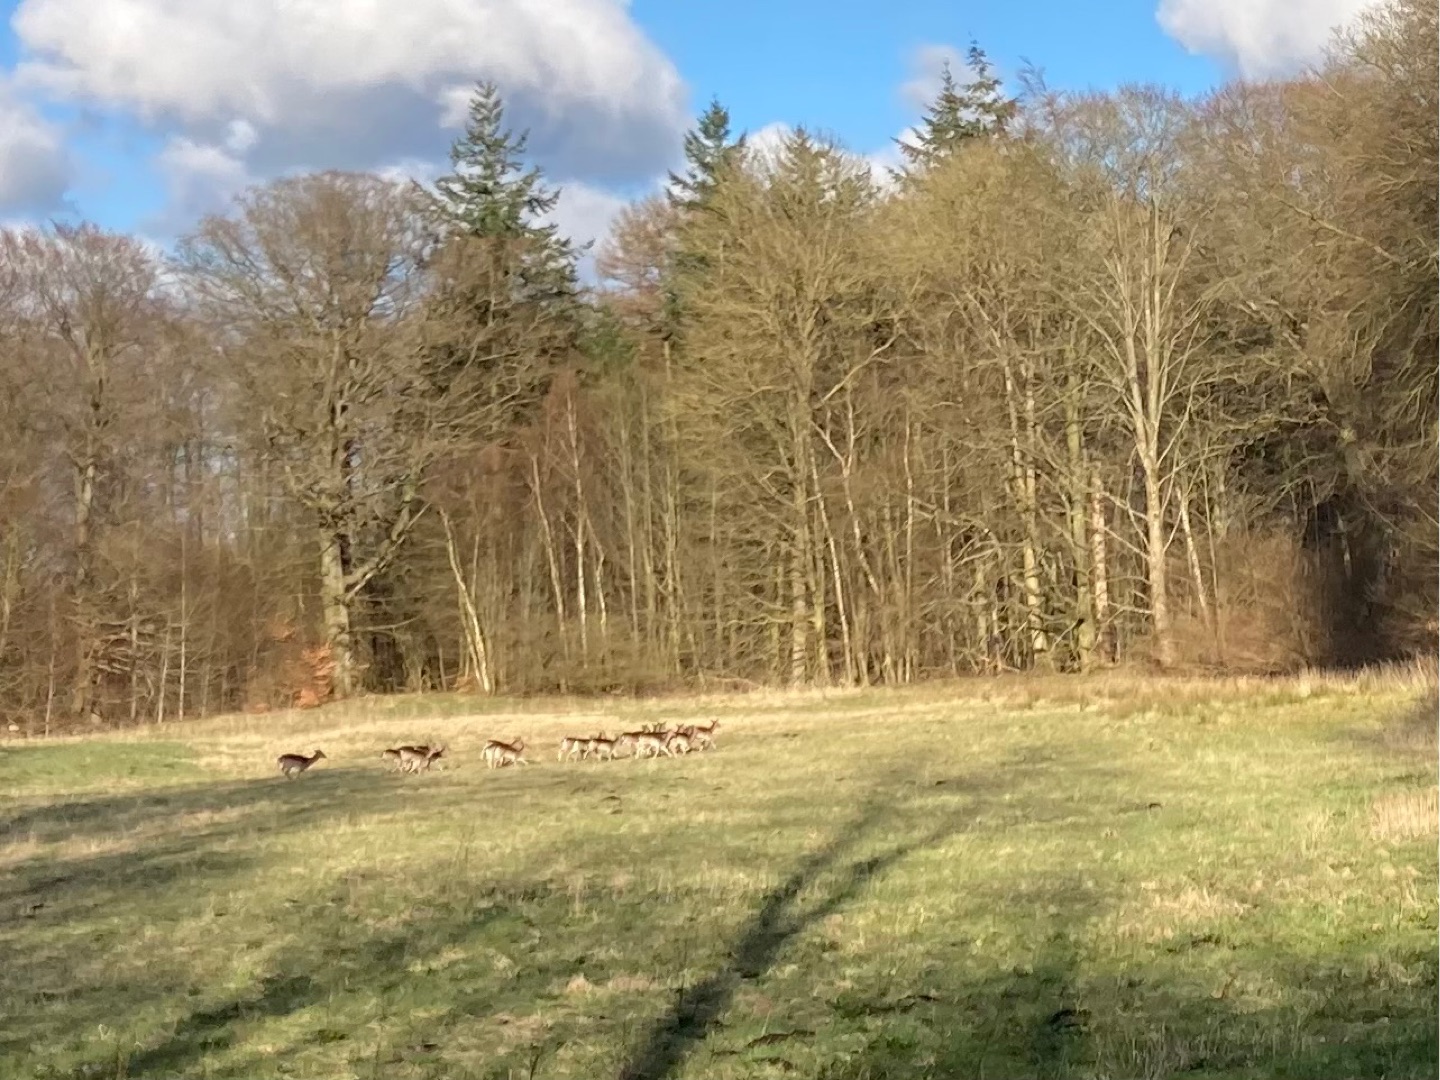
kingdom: Animalia
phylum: Chordata
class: Mammalia
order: Artiodactyla
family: Cervidae
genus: Dama
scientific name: Dama dama
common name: Dådyr
